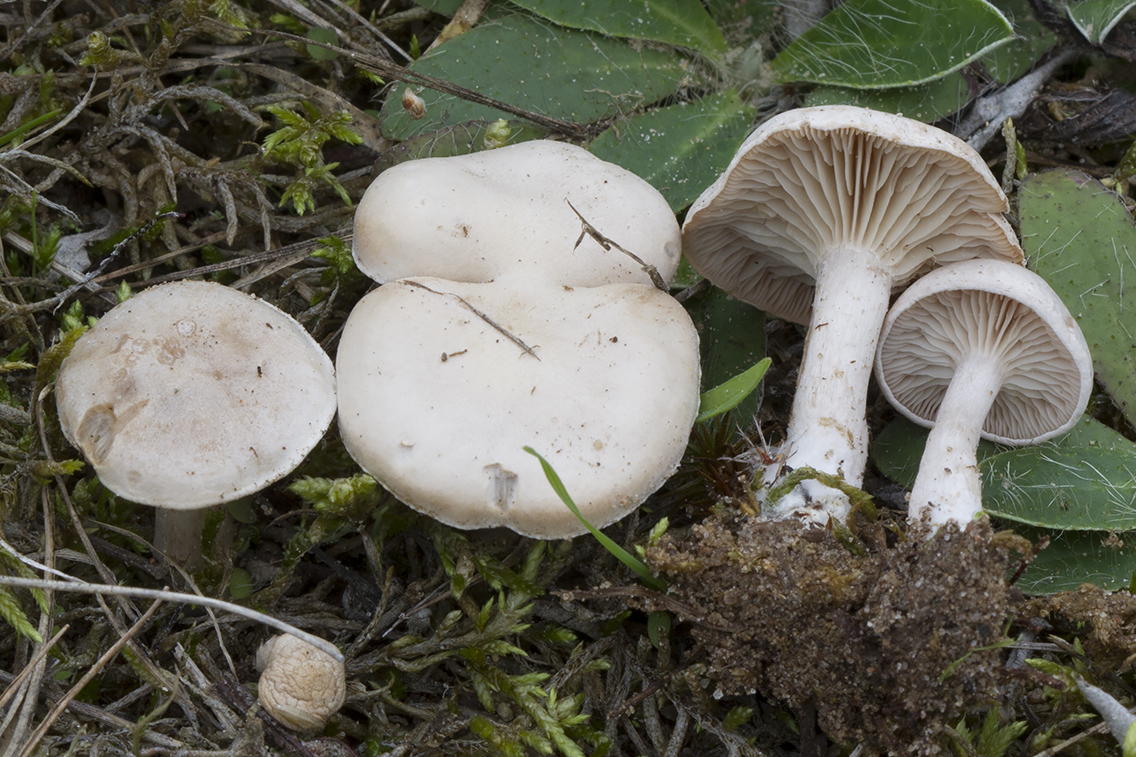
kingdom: Fungi
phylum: Basidiomycota
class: Agaricomycetes
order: Agaricales
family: Tricholomataceae
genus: Clitocybe
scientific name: Clitocybe rivulosa
